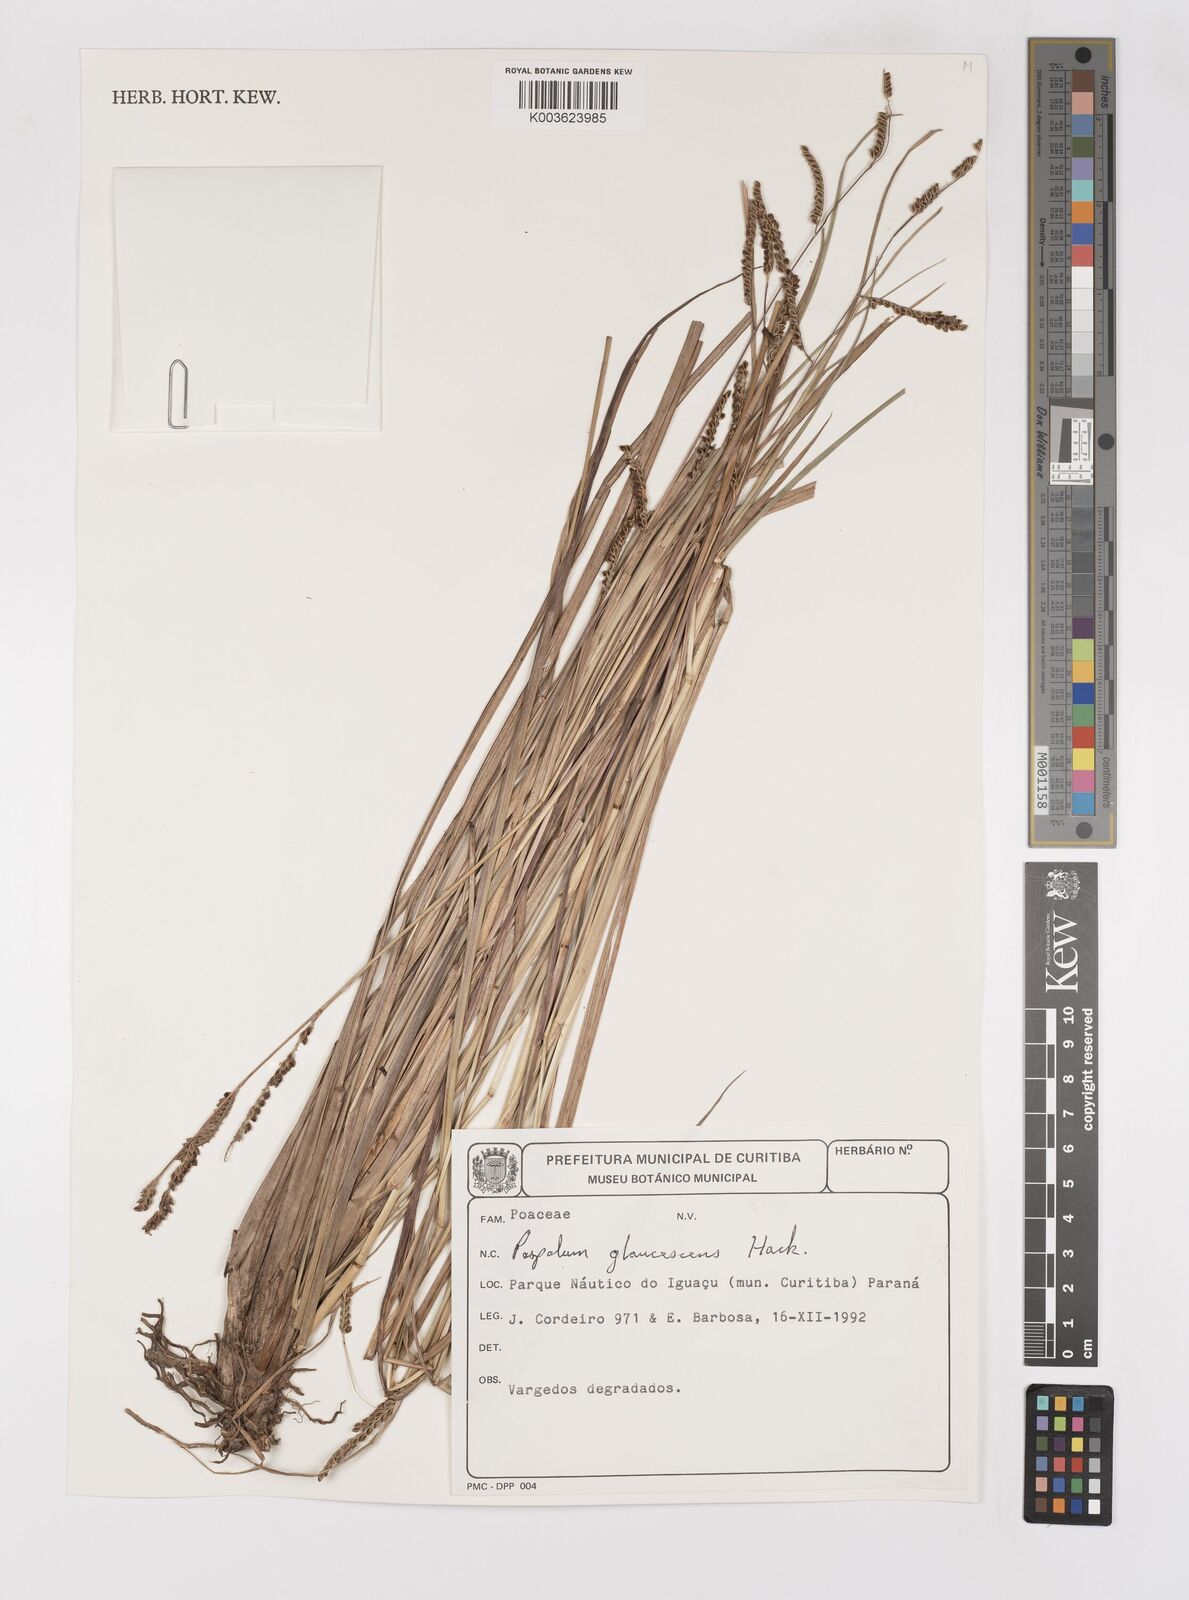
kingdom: Plantae
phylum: Tracheophyta
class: Liliopsida
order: Poales
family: Poaceae
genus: Paspalum
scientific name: Paspalum glaucescens
